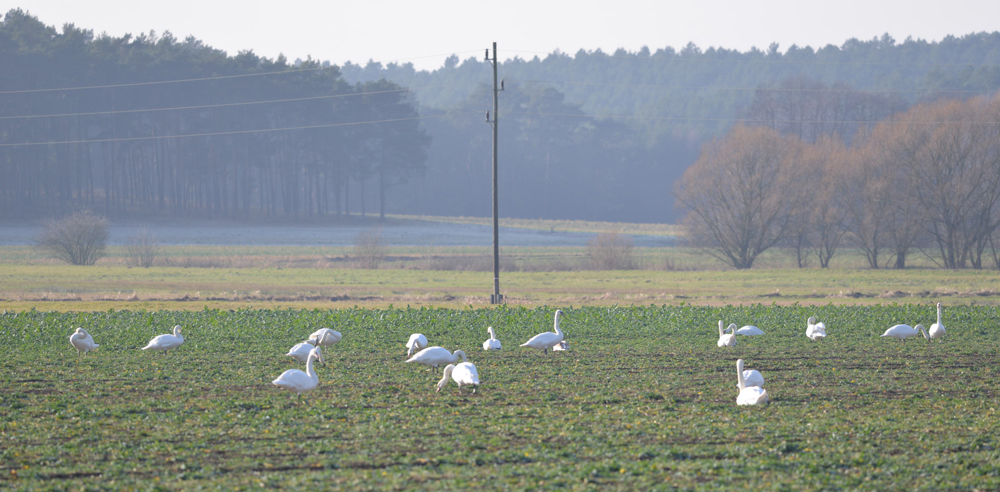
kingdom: Animalia
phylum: Chordata
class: Aves
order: Anseriformes
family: Anatidae
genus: Cygnus
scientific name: Cygnus olor
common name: Mute swan
